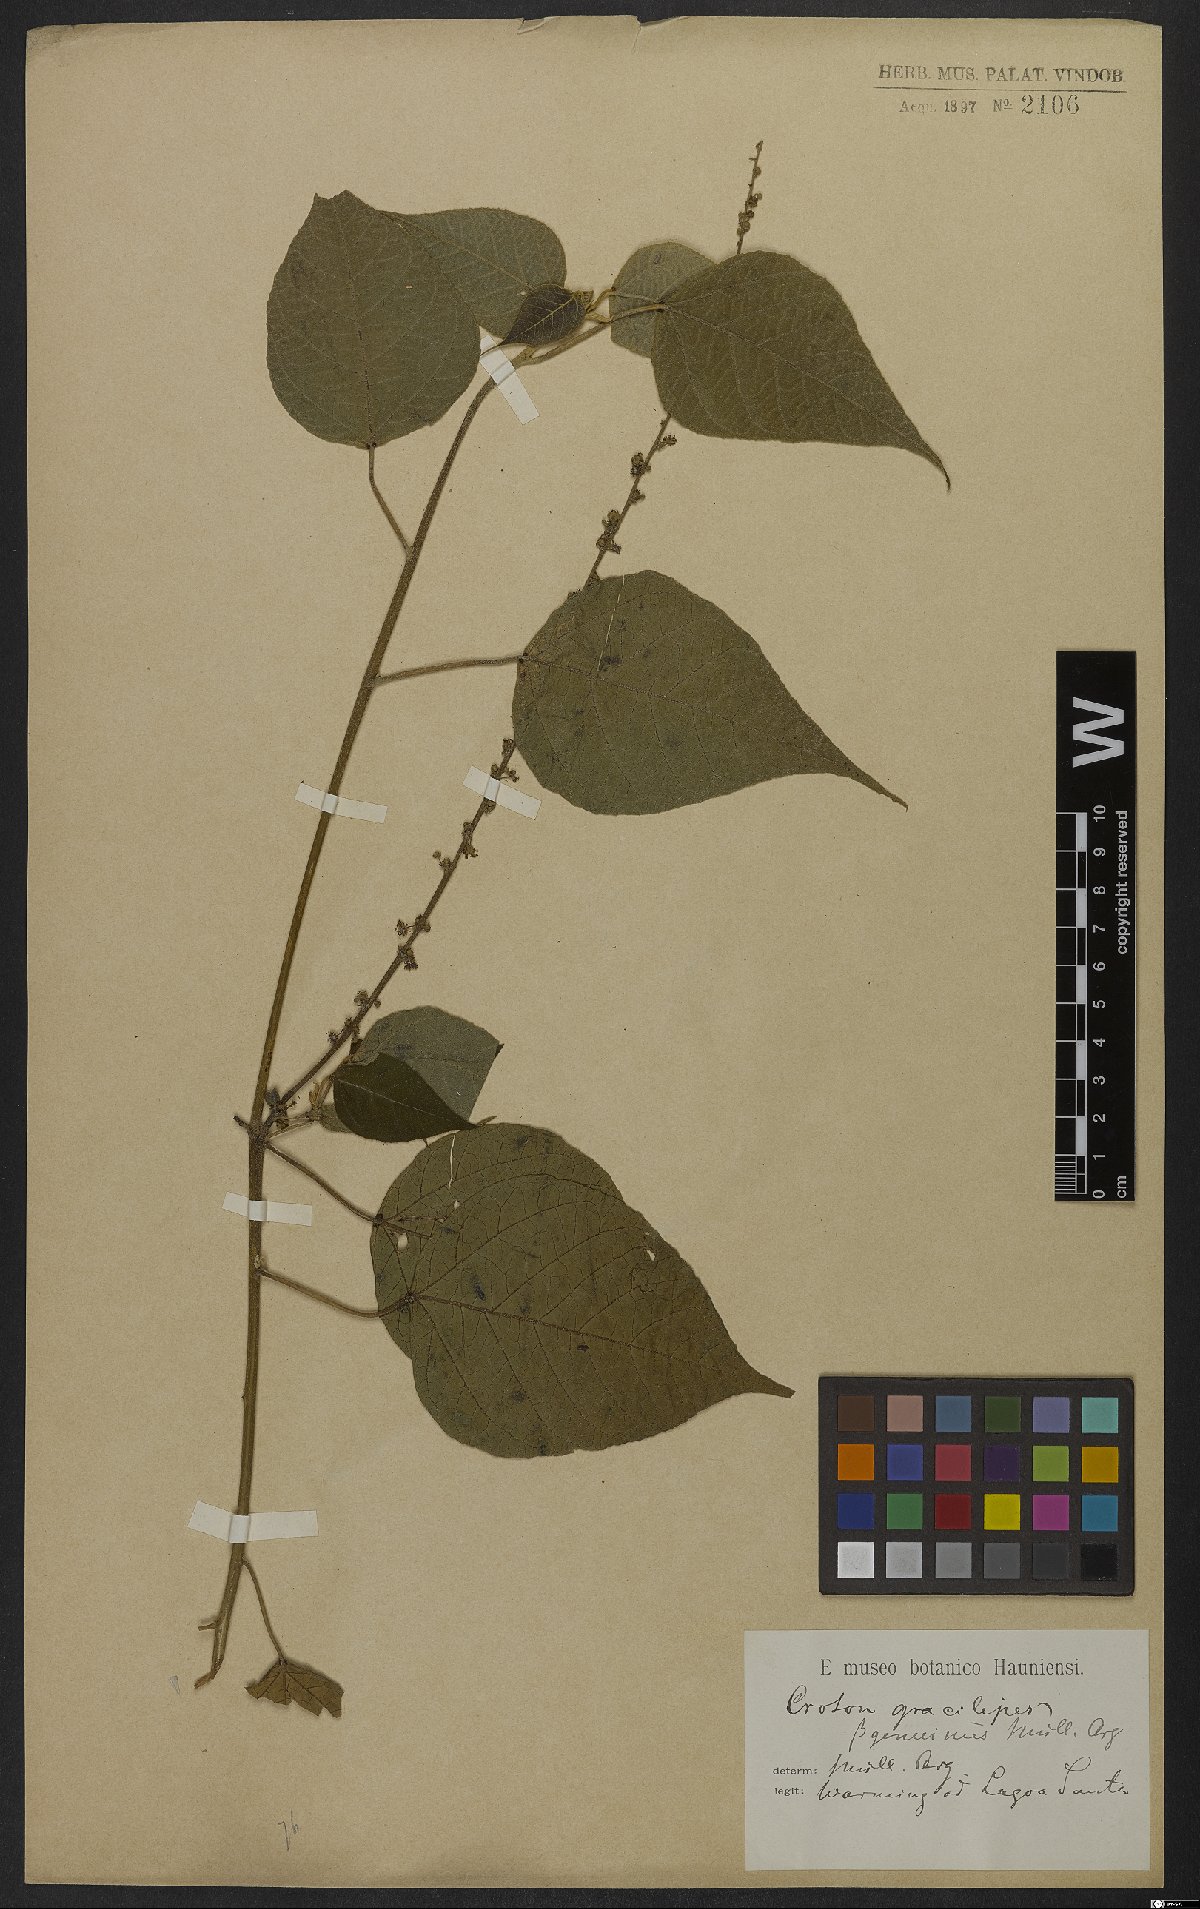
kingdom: Plantae
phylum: Tracheophyta
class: Magnoliopsida
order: Malpighiales
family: Euphorbiaceae
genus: Croton
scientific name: Croton gracilipes
